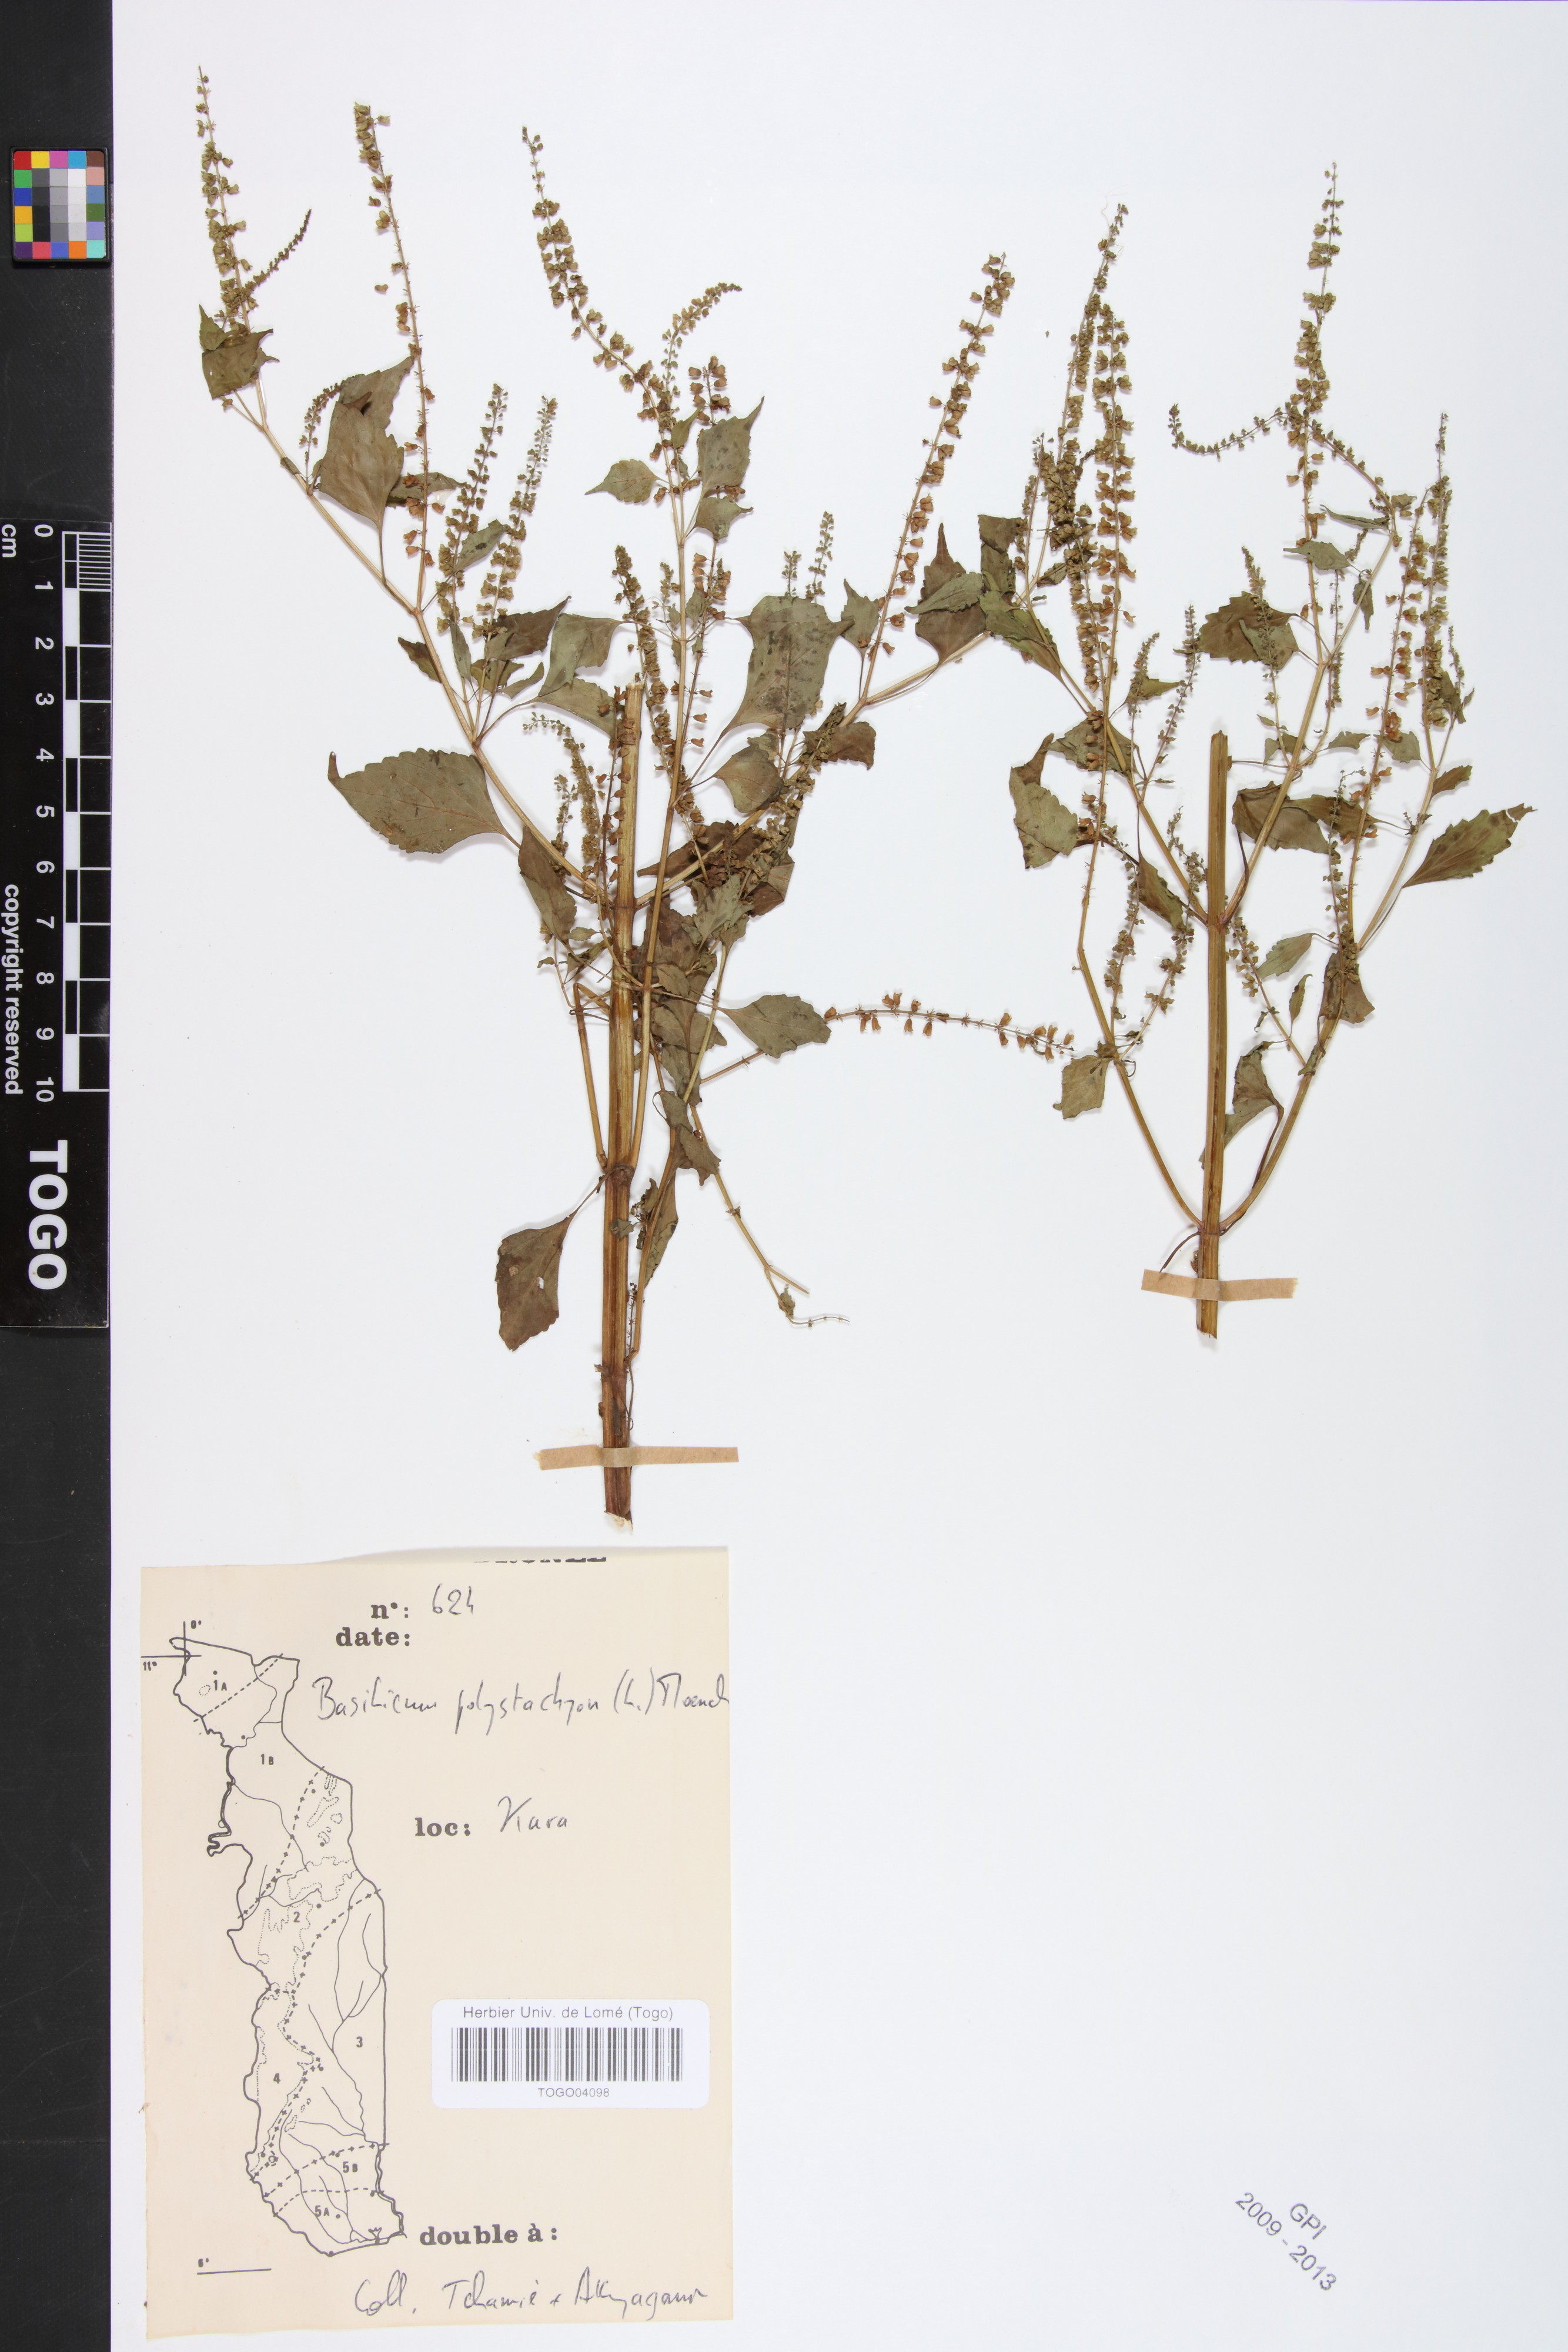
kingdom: Plantae
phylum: Tracheophyta
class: Magnoliopsida
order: Lamiales
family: Lamiaceae
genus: Basilicum
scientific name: Basilicum polystachyon
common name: Musk-basil
